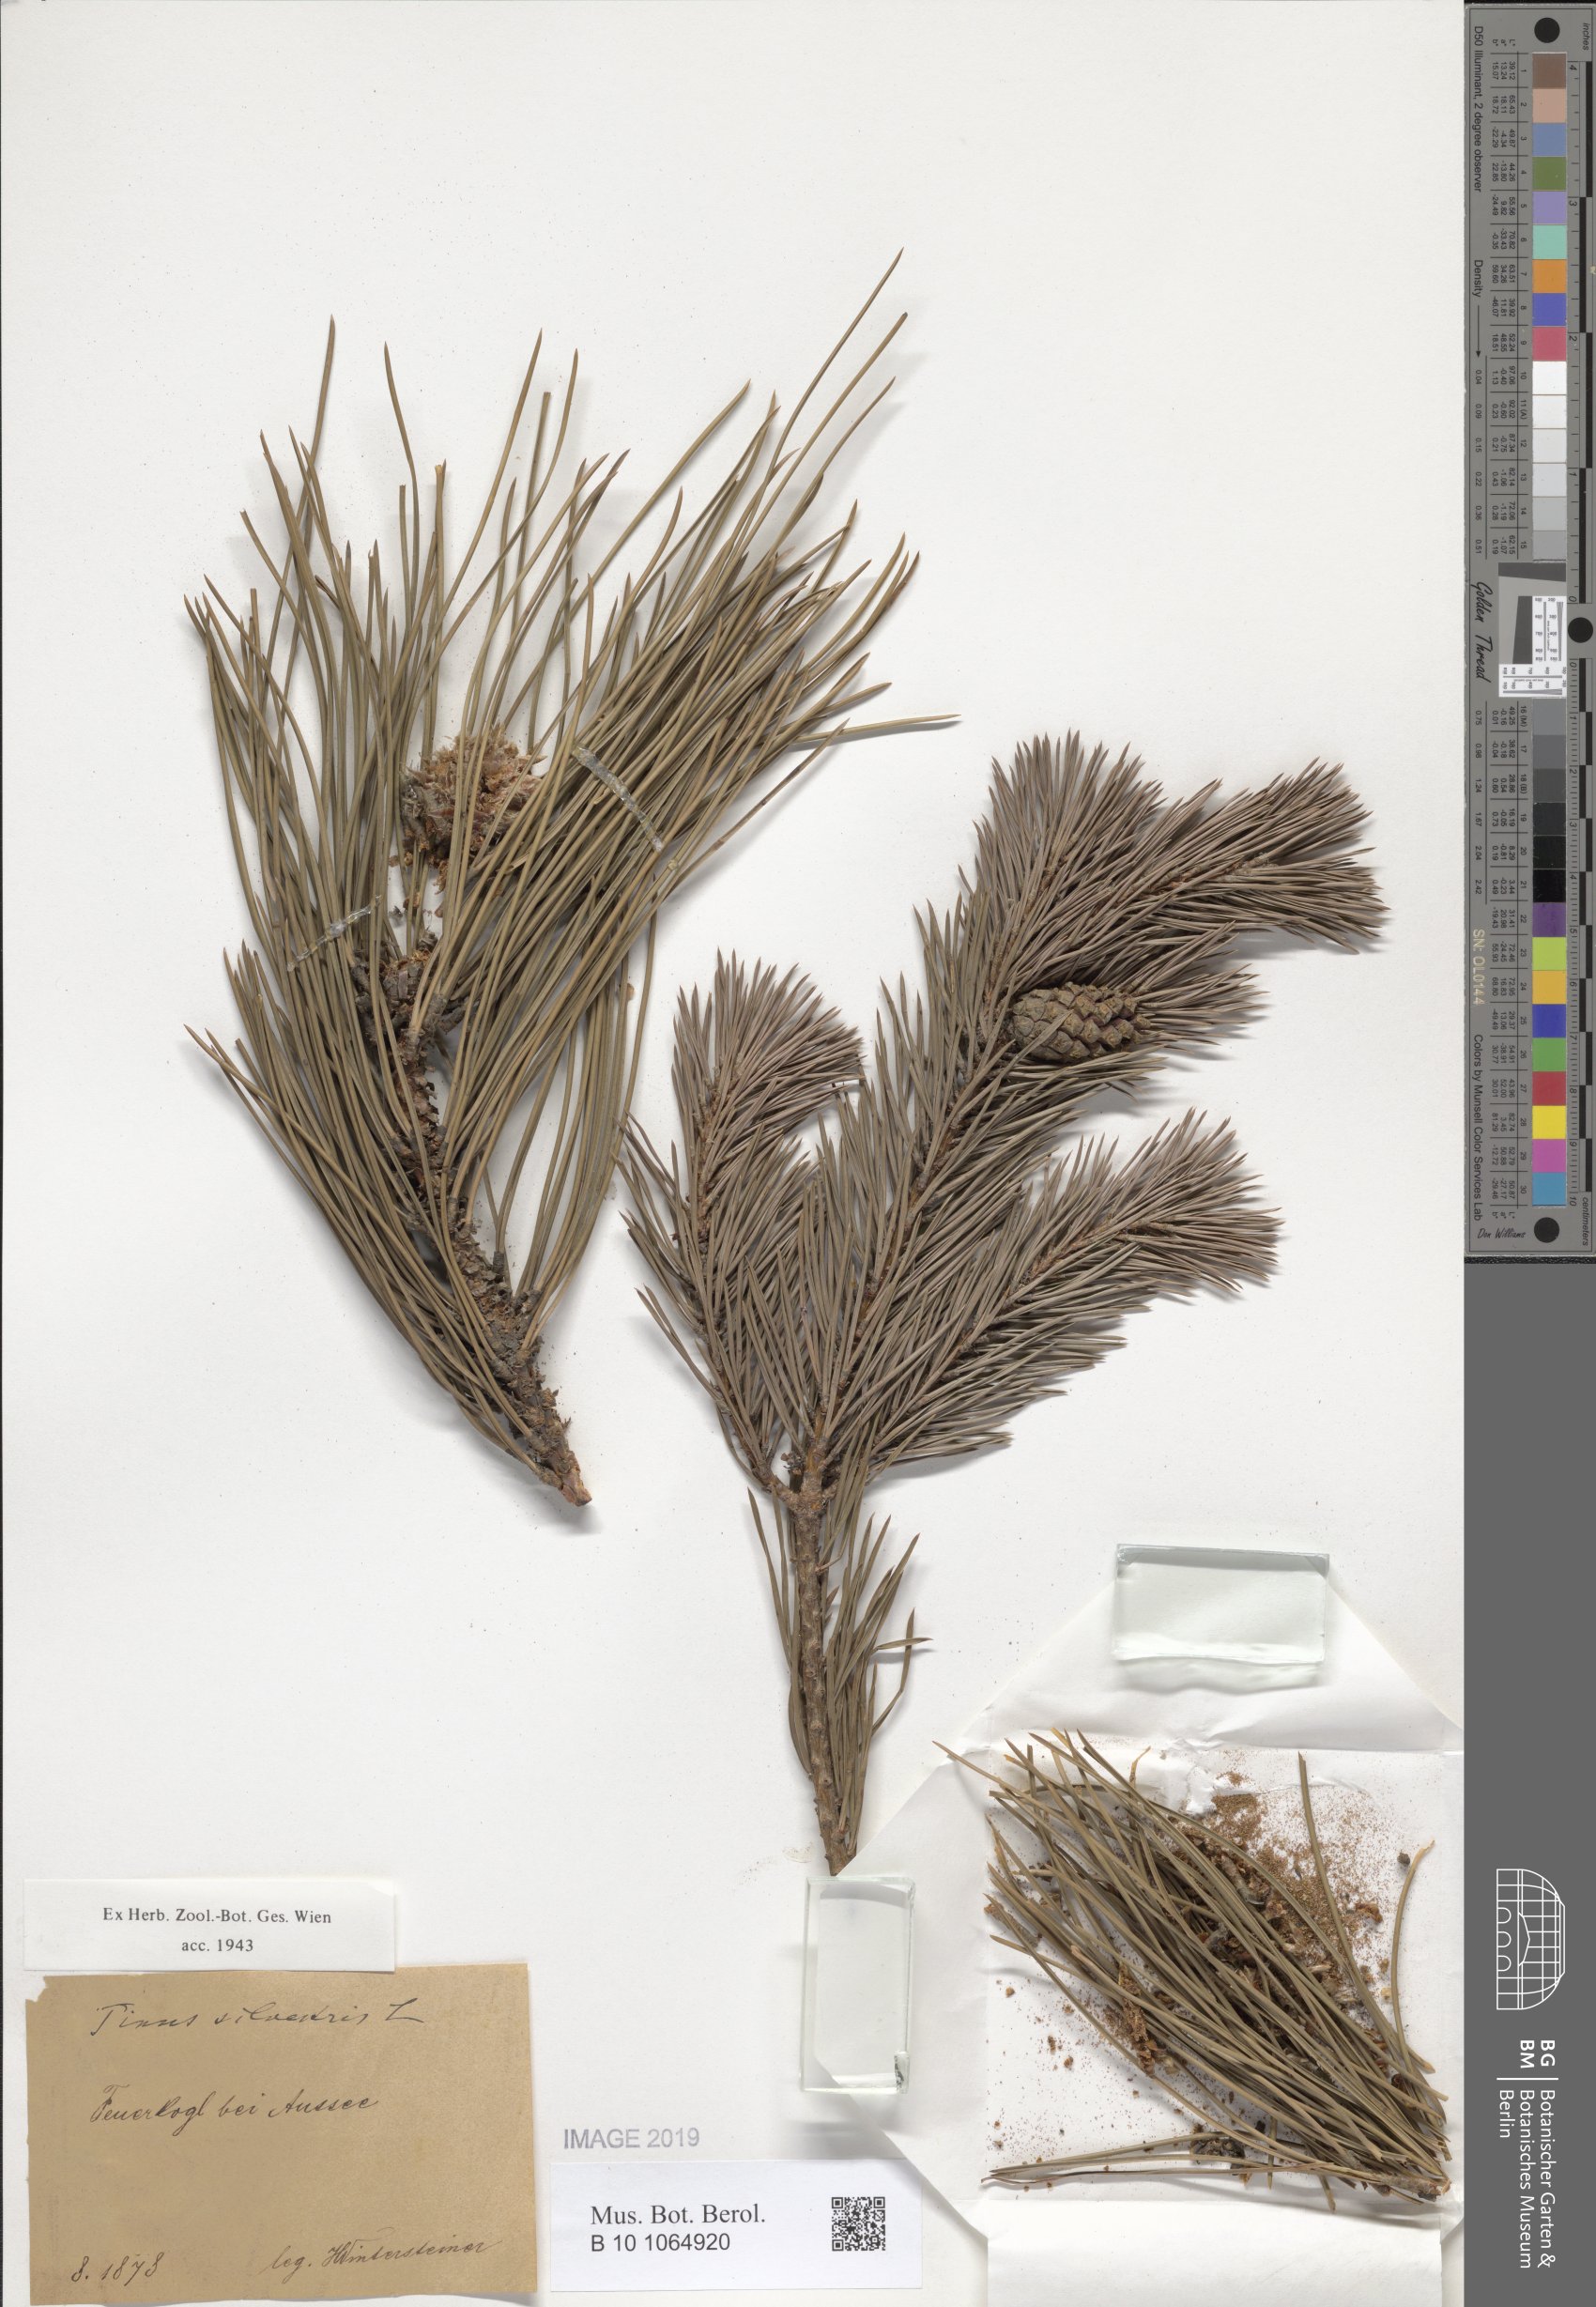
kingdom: Plantae
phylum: Tracheophyta
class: Pinopsida
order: Pinales
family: Pinaceae
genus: Pinus
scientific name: Pinus sylvestris
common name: Scots pine
